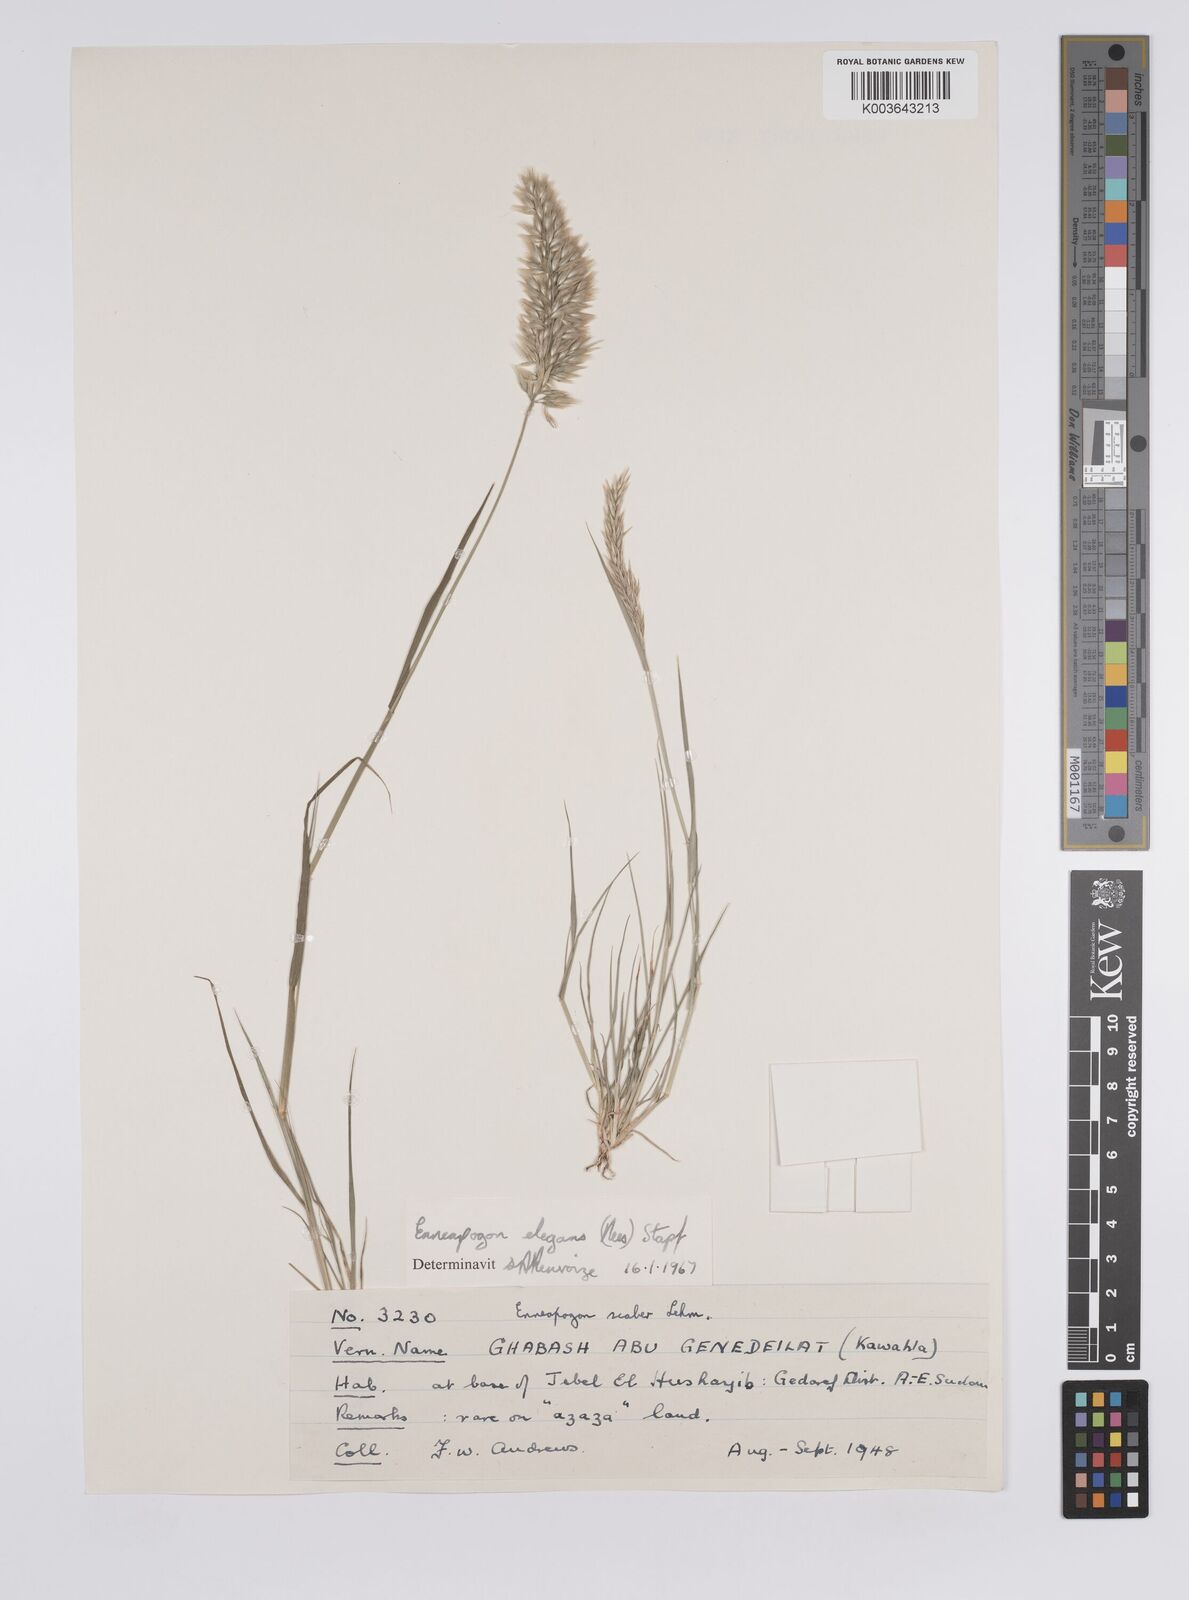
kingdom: Plantae
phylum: Tracheophyta
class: Liliopsida
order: Poales
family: Poaceae
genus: Enneapogon
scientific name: Enneapogon lophotrichus
